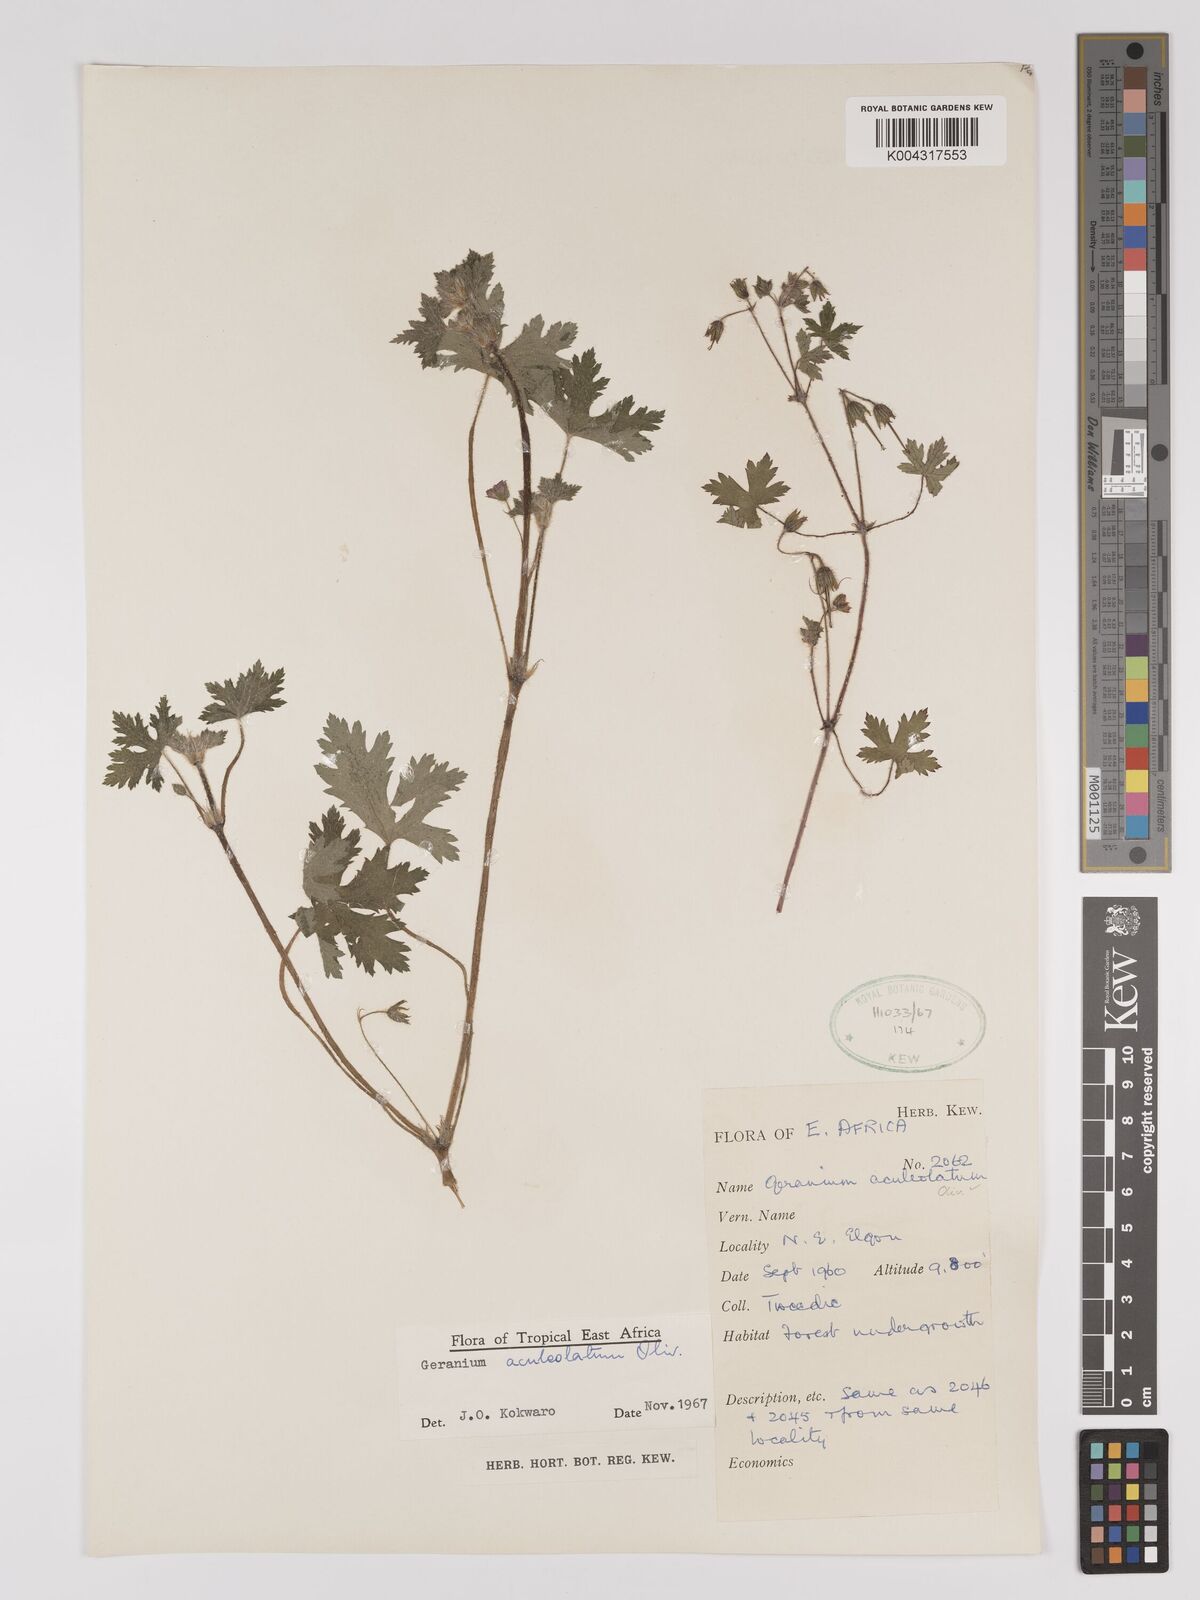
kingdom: Plantae
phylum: Tracheophyta
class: Magnoliopsida
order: Geraniales
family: Geraniaceae
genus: Geranium
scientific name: Geranium aculeolatum
